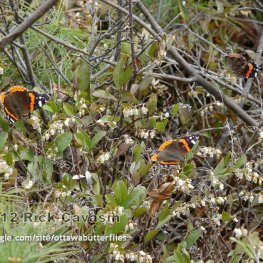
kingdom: Animalia
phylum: Arthropoda
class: Insecta
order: Lepidoptera
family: Nymphalidae
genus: Vanessa
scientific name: Vanessa atalanta
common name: Red Admiral
